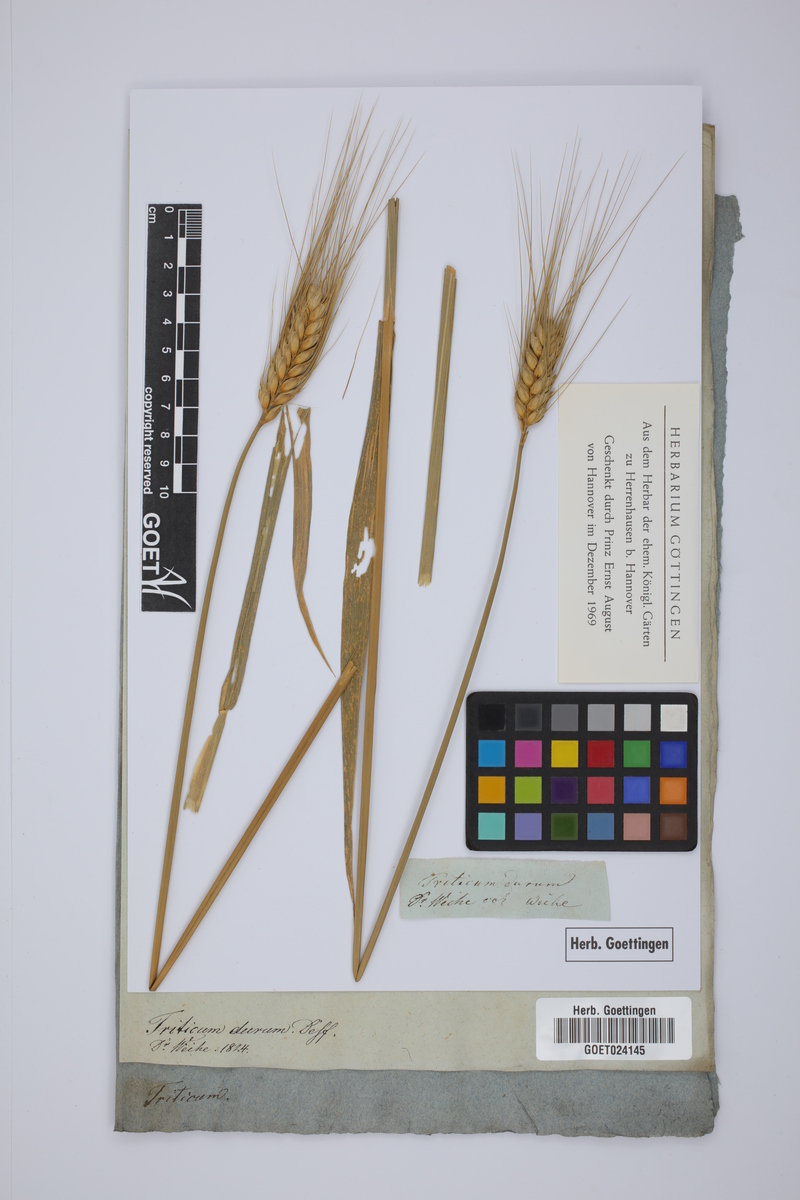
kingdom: Plantae
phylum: Tracheophyta
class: Liliopsida
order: Poales
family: Poaceae
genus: Triticum
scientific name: Triticum turgidum
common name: Rivet wheat
